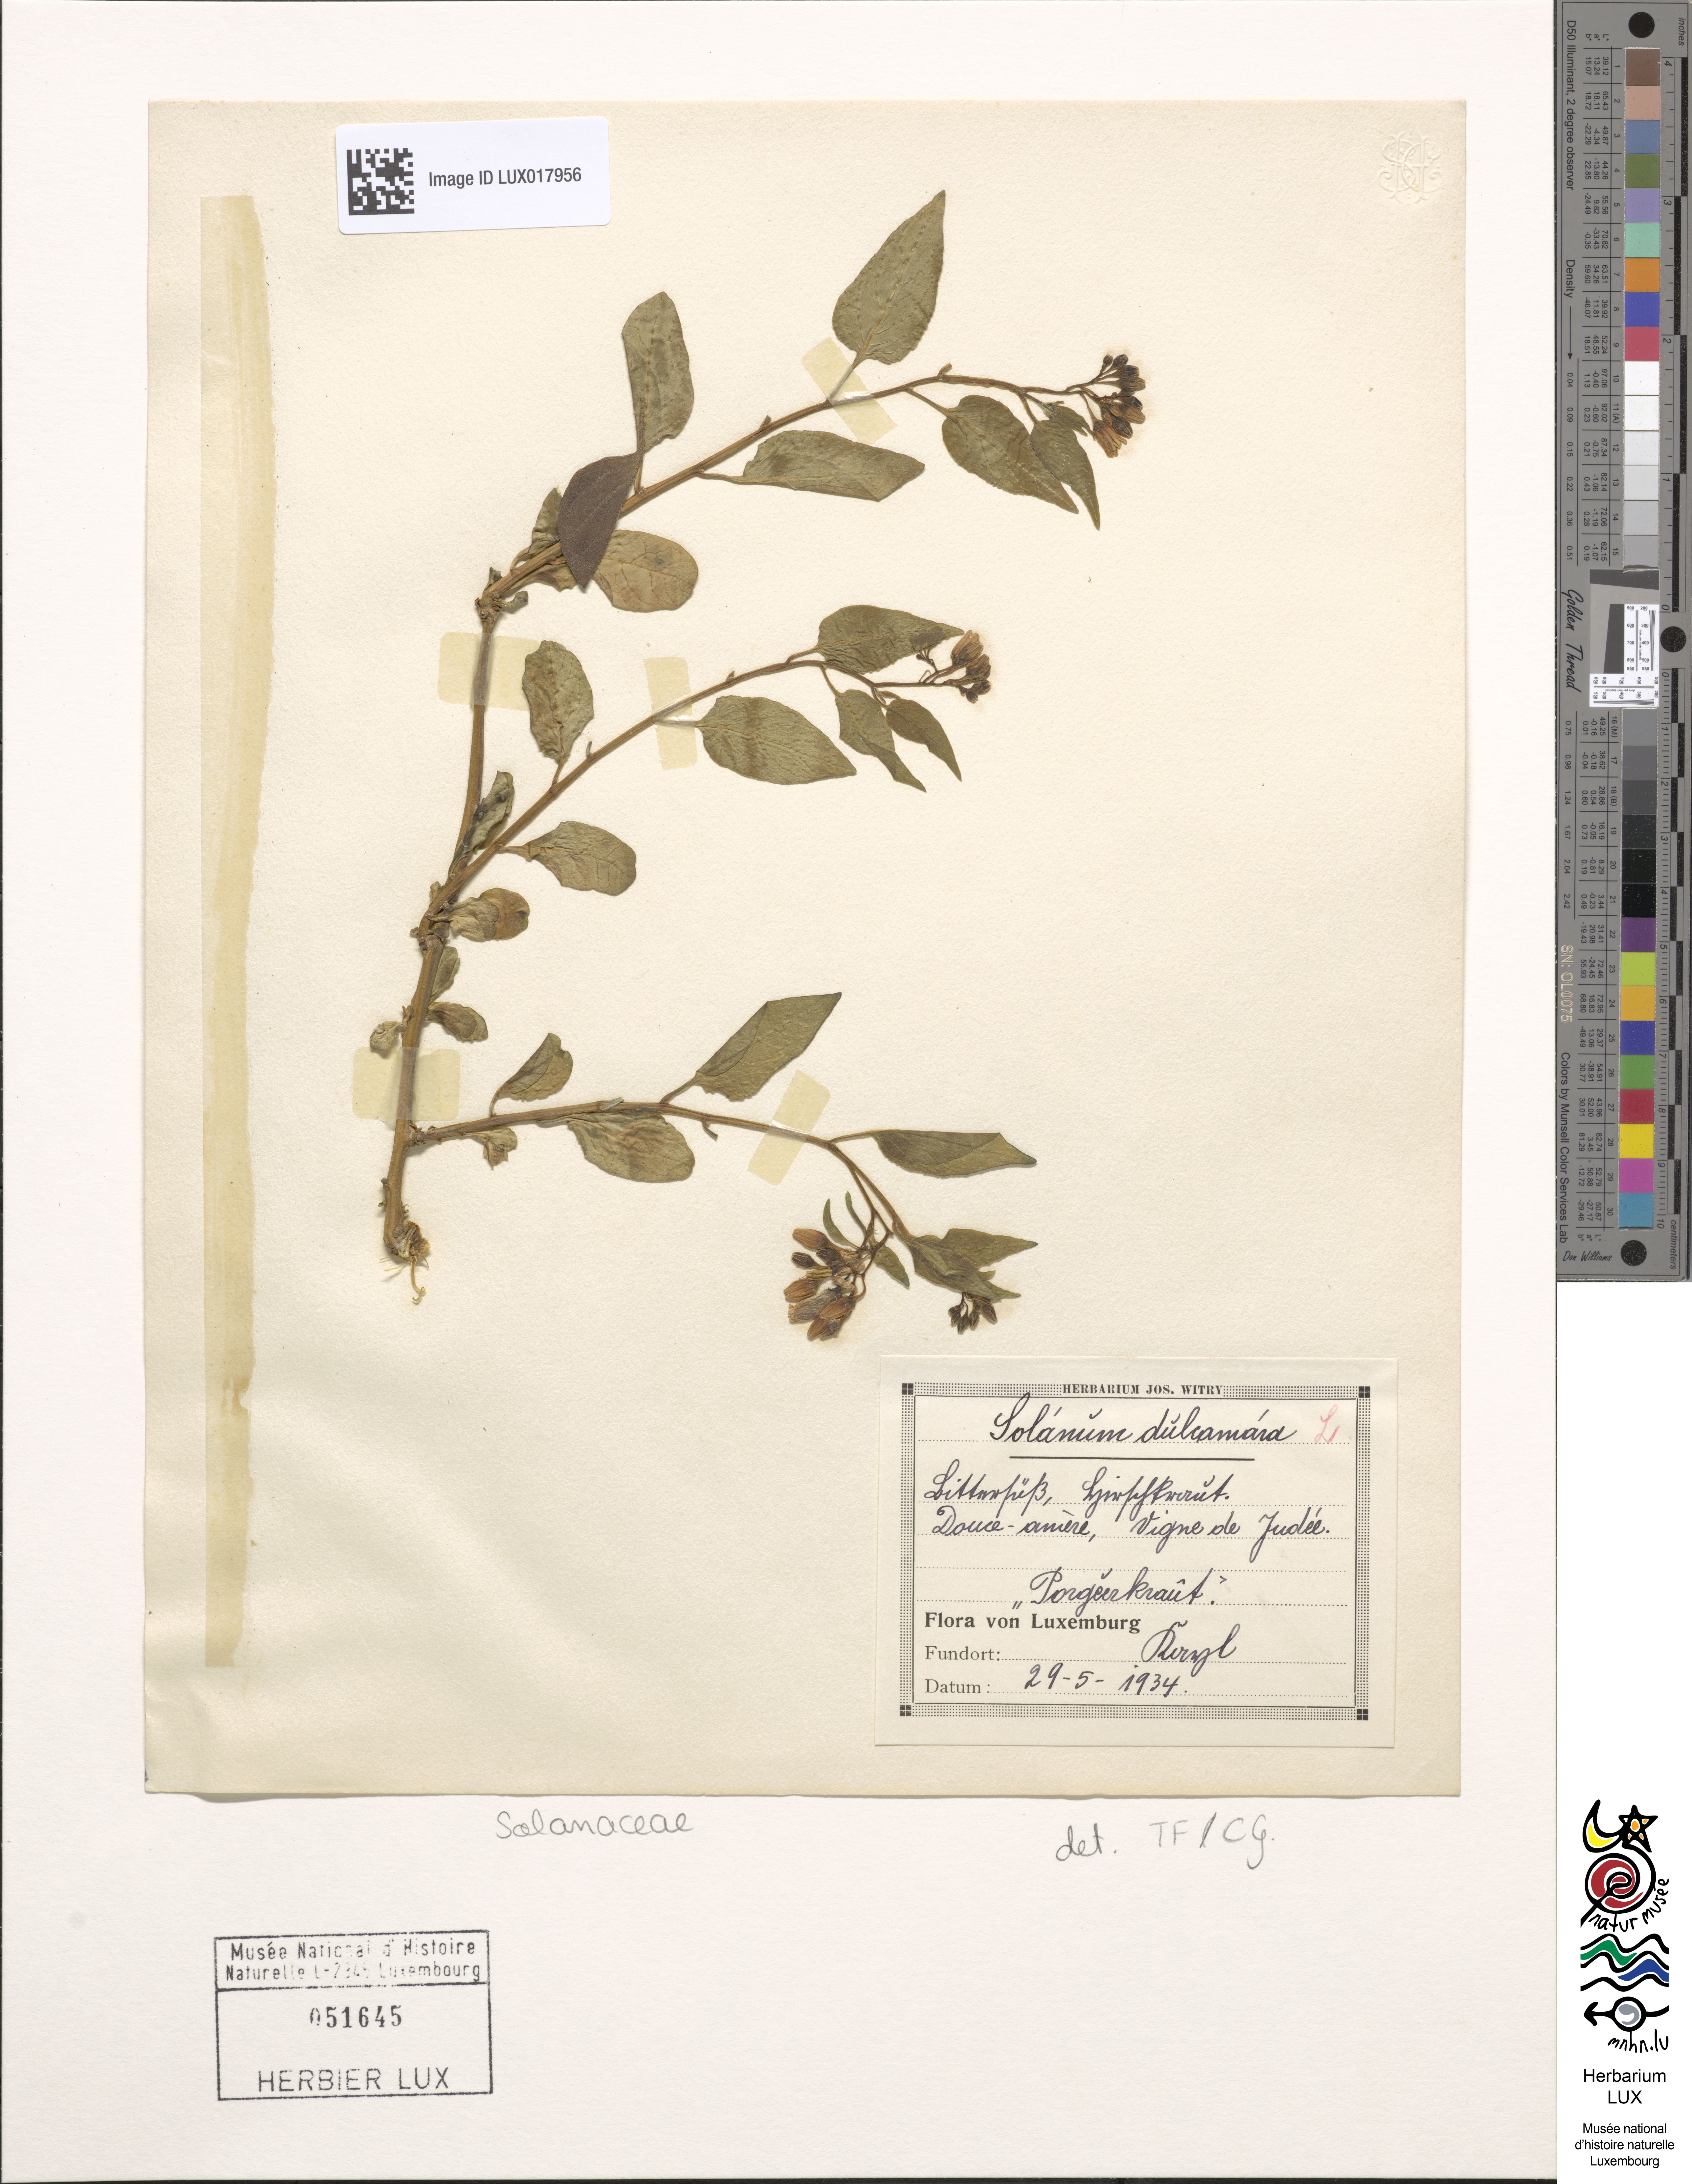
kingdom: Plantae
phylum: Tracheophyta
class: Magnoliopsida
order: Solanales
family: Solanaceae
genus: Solanum
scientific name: Solanum dulcamara
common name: Climbing nightshade
